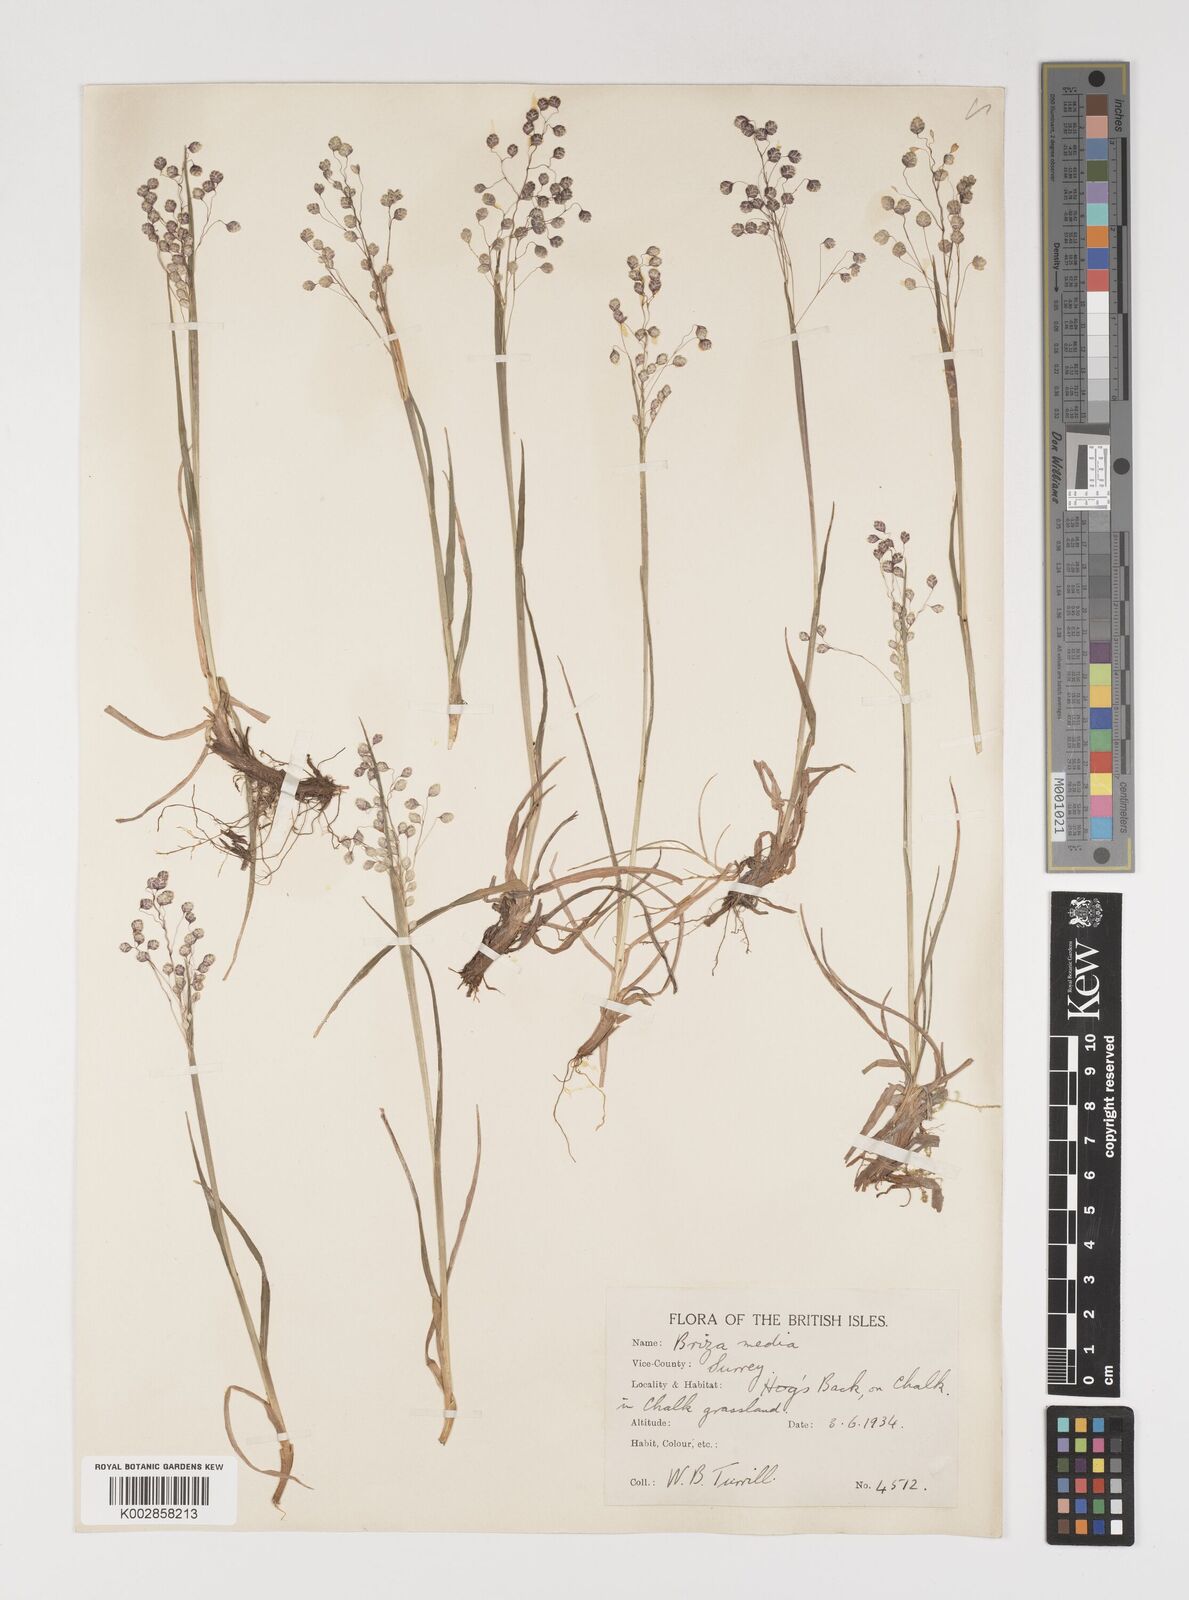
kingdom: Plantae
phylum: Tracheophyta
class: Liliopsida
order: Poales
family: Poaceae
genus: Briza
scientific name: Briza media
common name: Quaking grass
